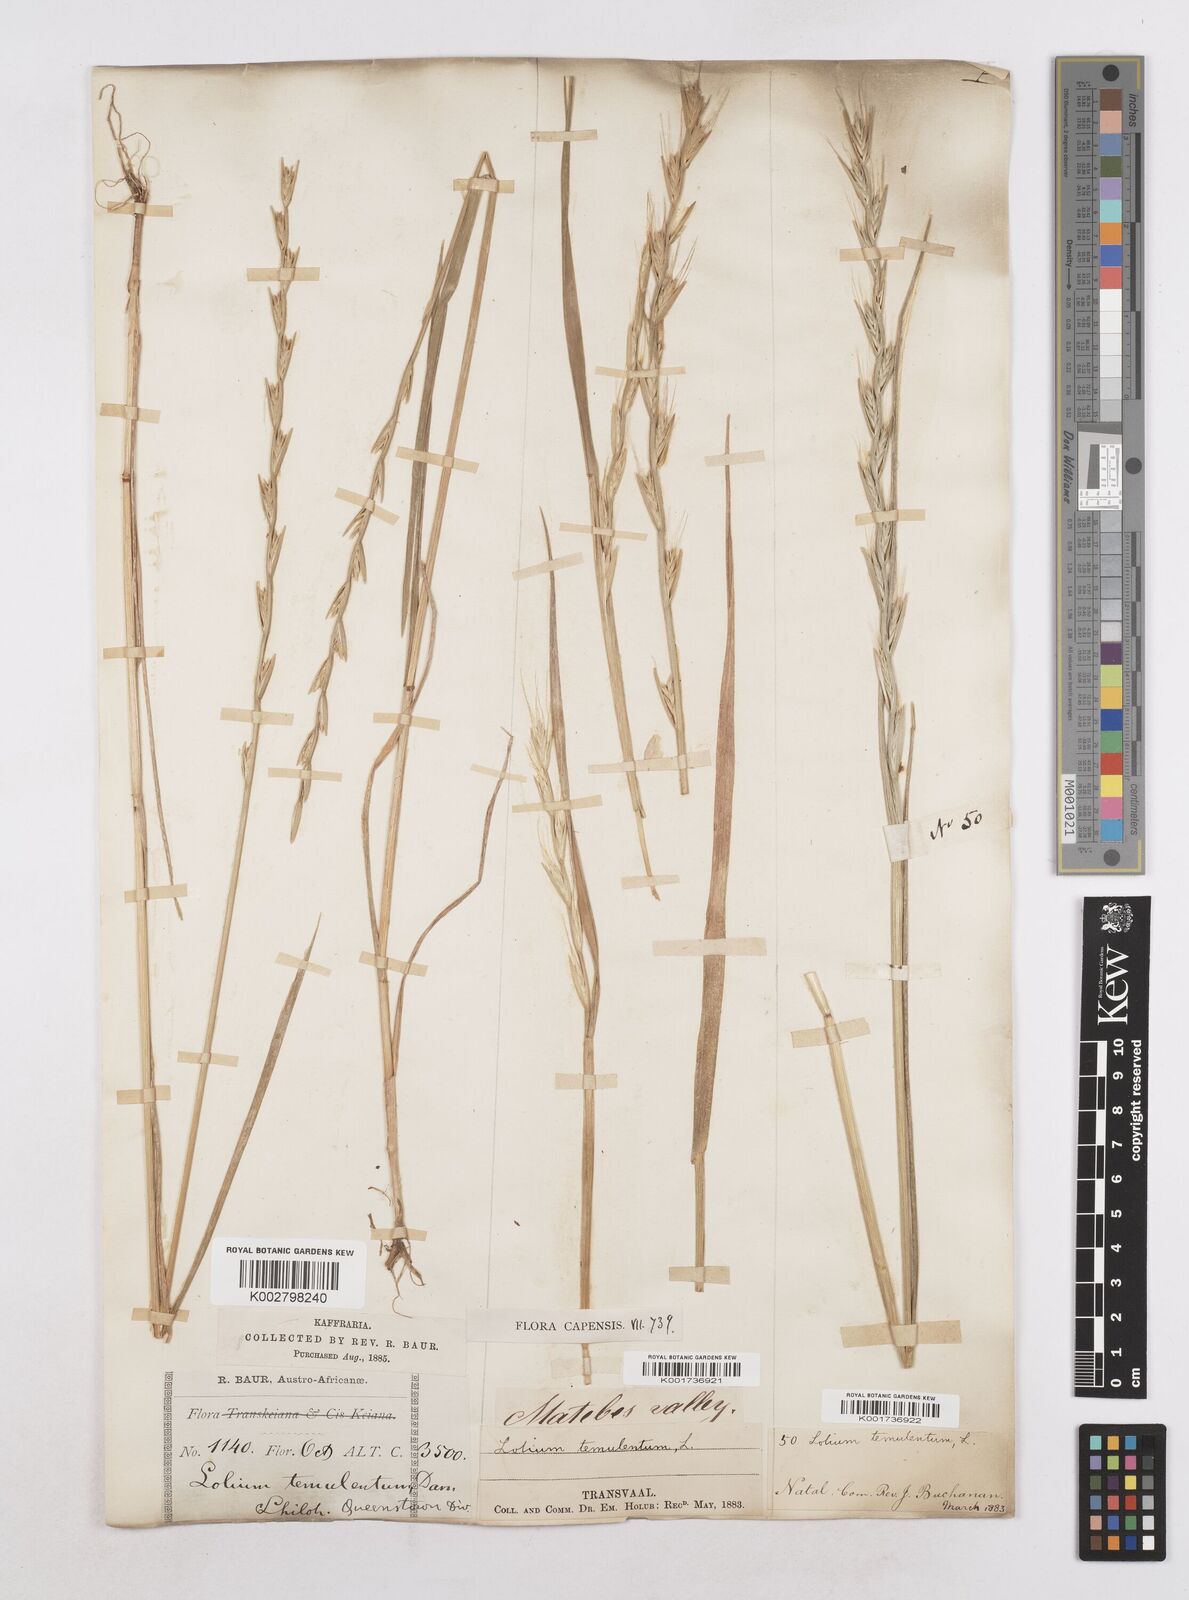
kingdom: Plantae
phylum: Tracheophyta
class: Liliopsida
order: Poales
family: Poaceae
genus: Lolium
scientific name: Lolium temulentum
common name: Darnel
